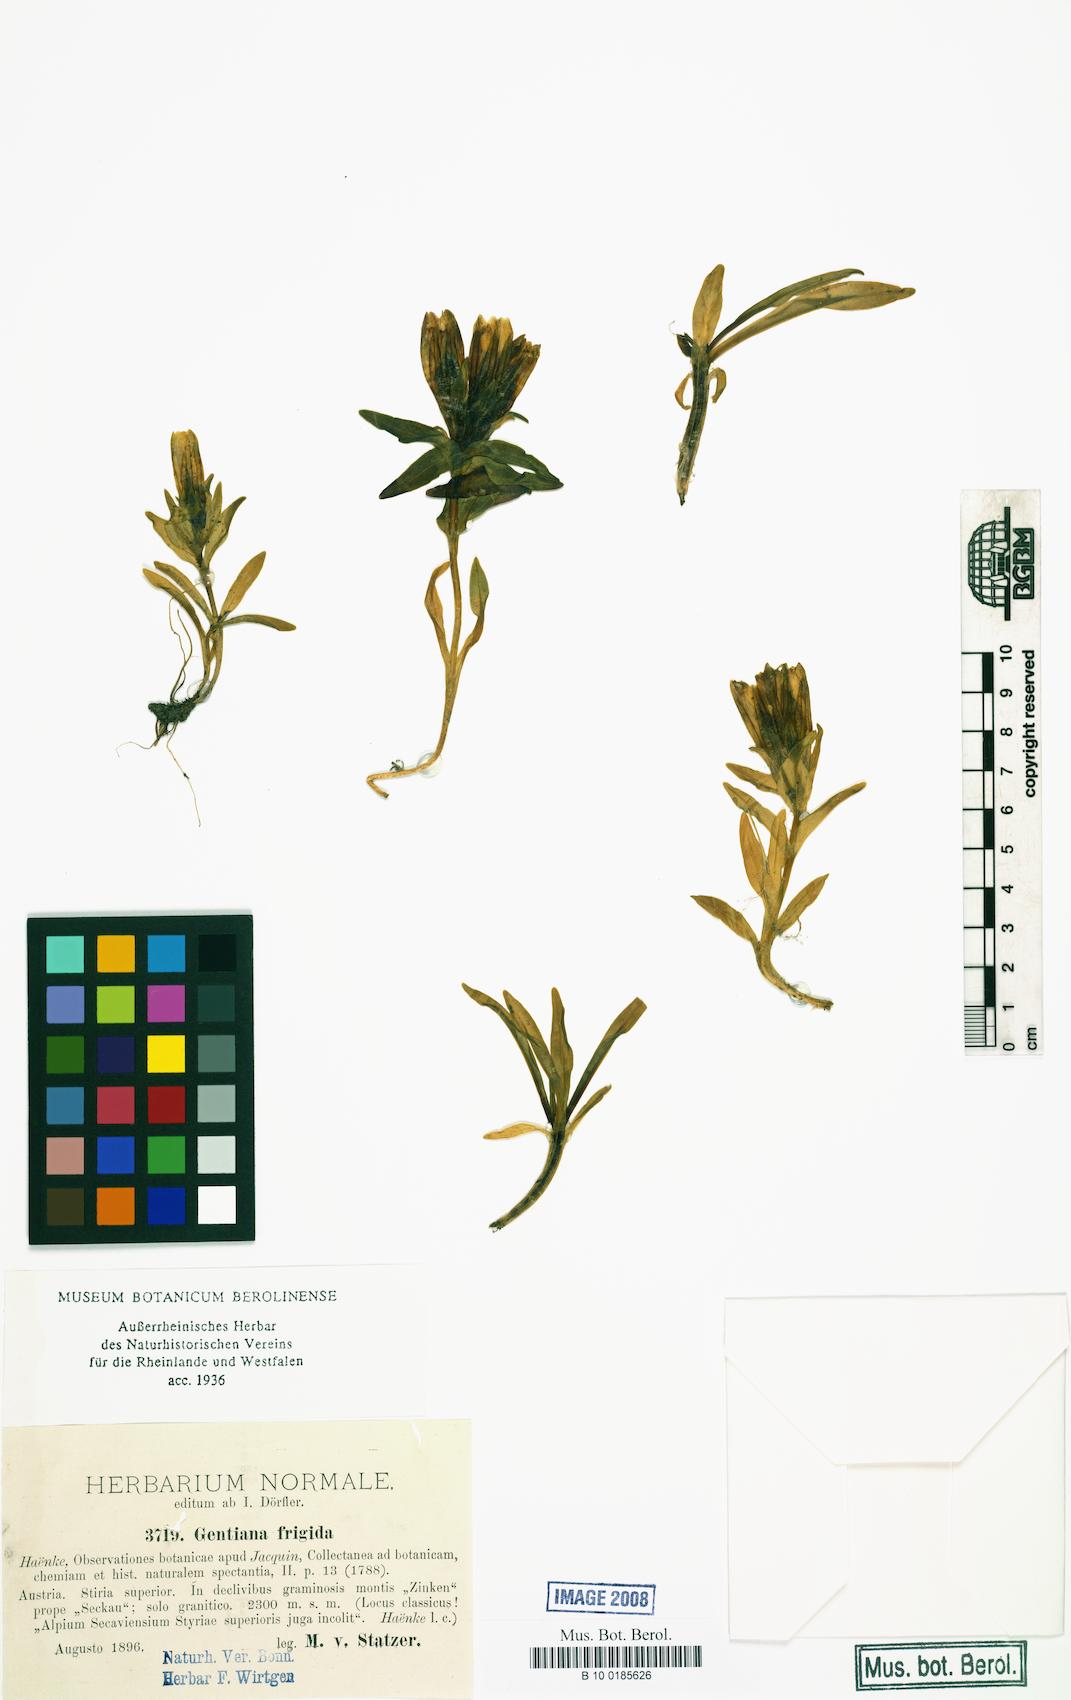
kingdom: Plantae
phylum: Tracheophyta
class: Magnoliopsida
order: Gentianales
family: Gentianaceae
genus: Gentiana
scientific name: Gentiana frigida
